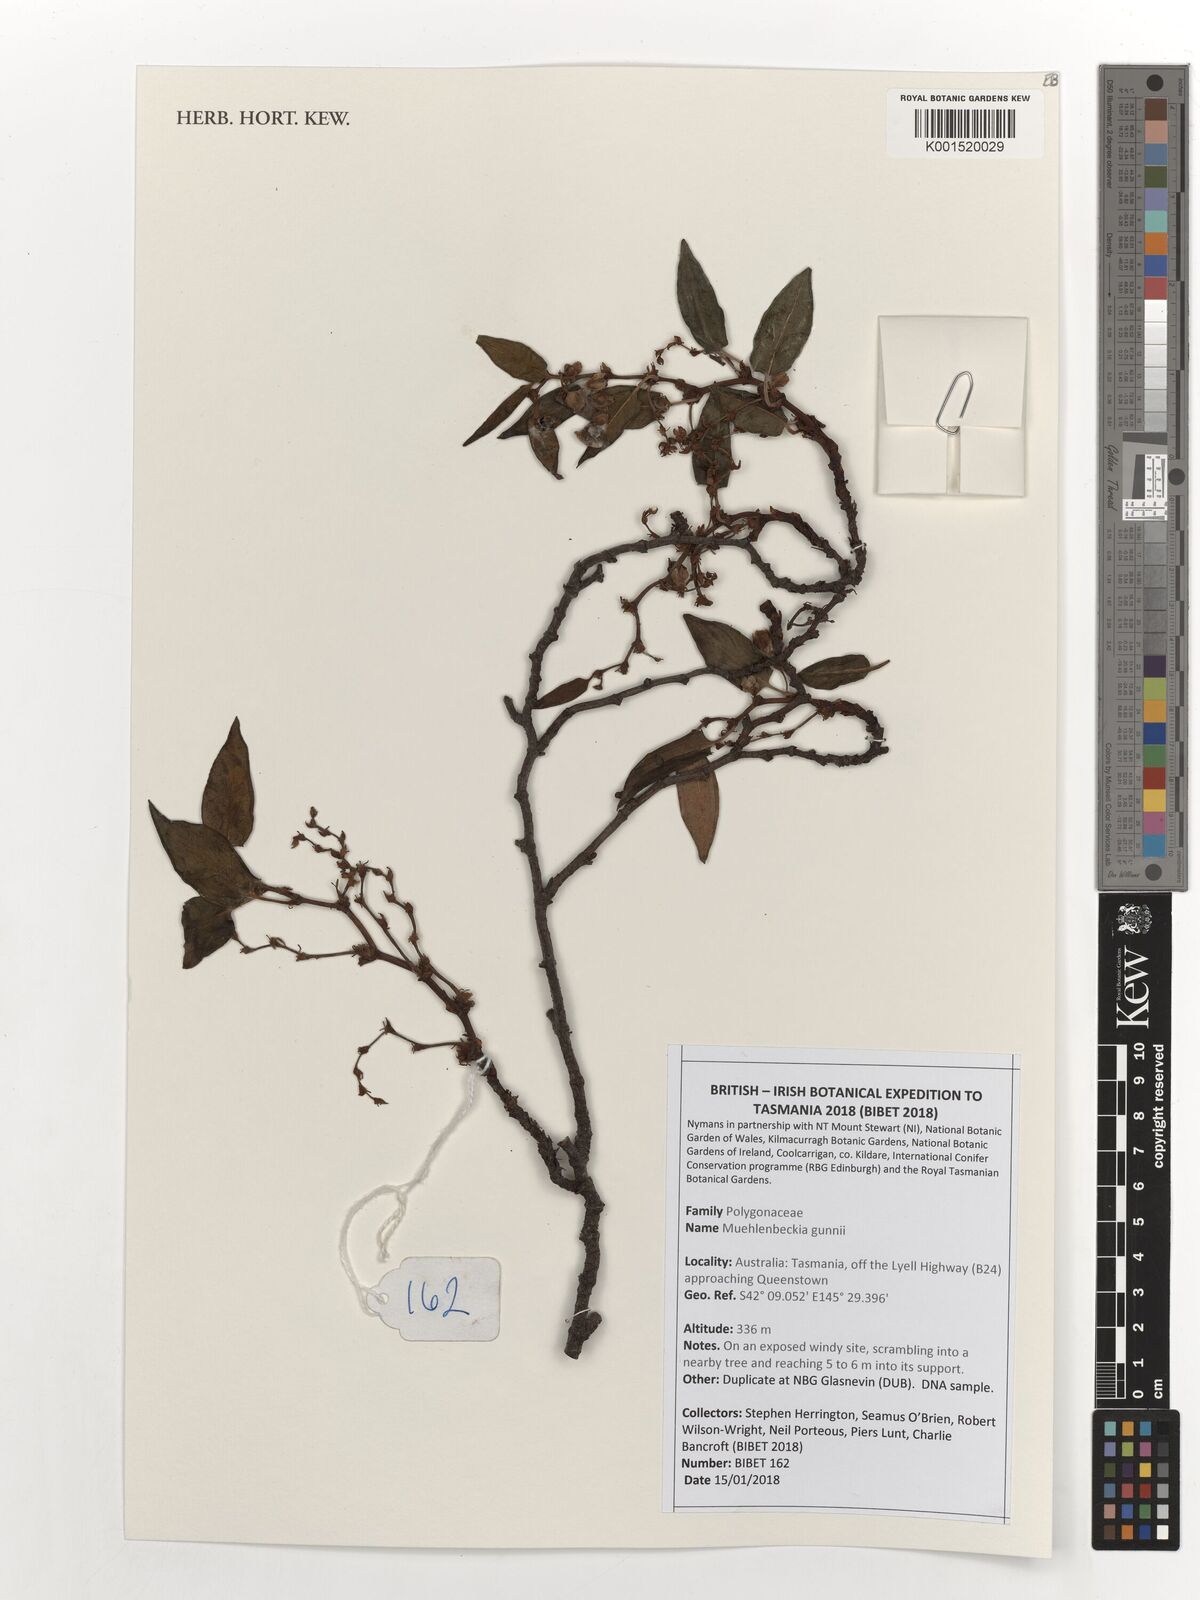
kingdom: Plantae
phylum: Tracheophyta
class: Magnoliopsida
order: Caryophyllales
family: Polygonaceae
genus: Muehlenbeckia
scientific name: Muehlenbeckia gunnii
